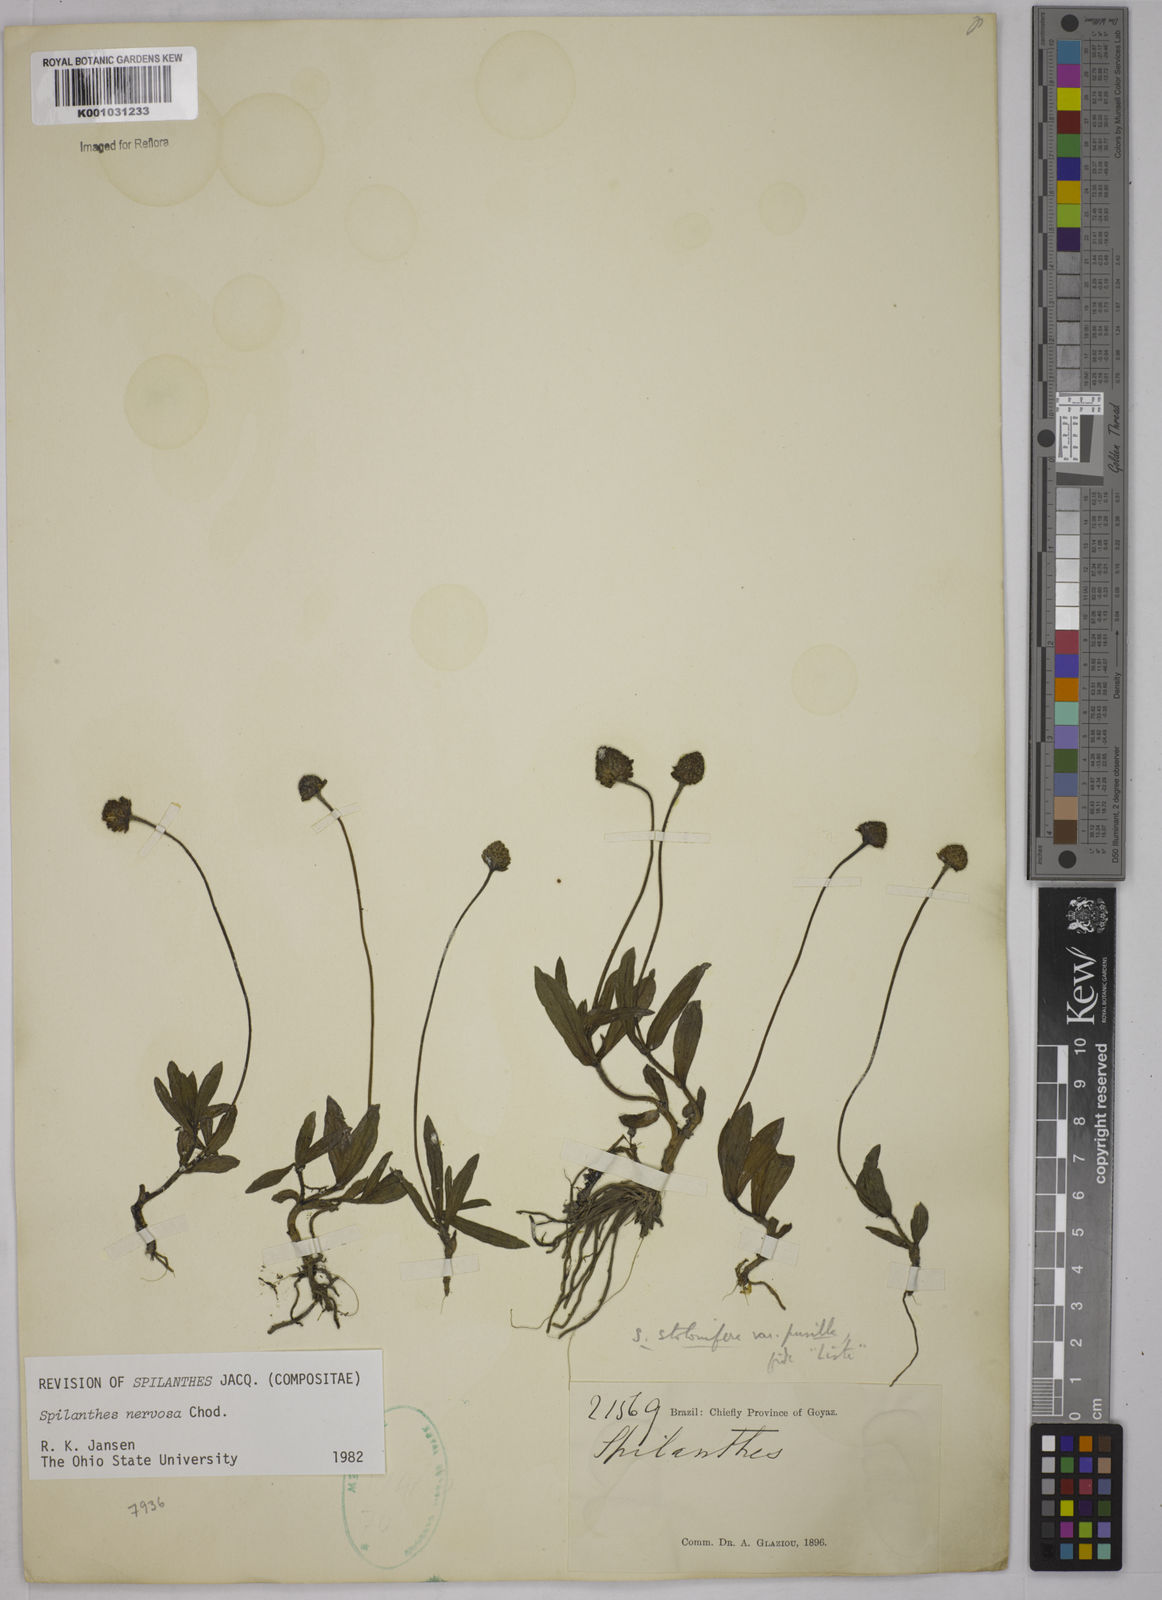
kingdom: Plantae
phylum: Tracheophyta
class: Magnoliopsida
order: Asterales
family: Asteraceae
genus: Spilanthes
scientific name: Spilanthes nervosa
